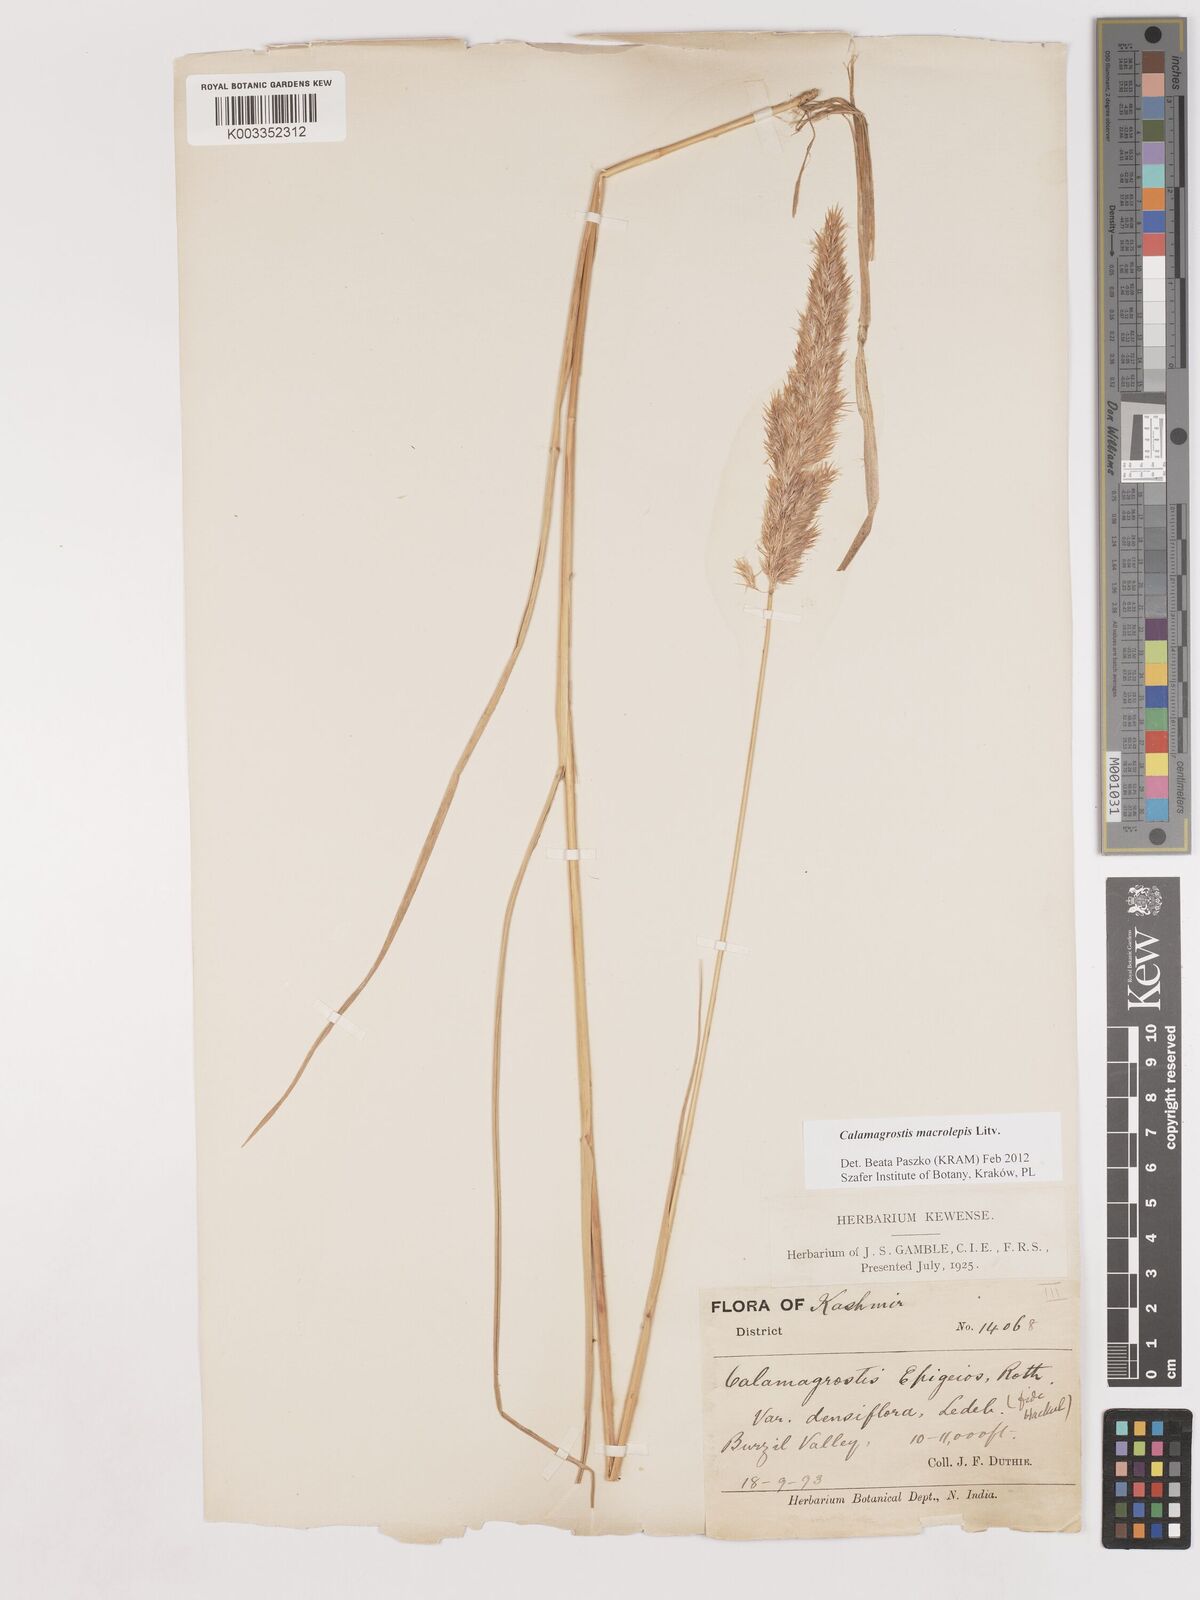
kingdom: Plantae
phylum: Tracheophyta
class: Liliopsida
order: Poales
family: Poaceae
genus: Calamagrostis
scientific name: Calamagrostis epigejos
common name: Wood small-reed
